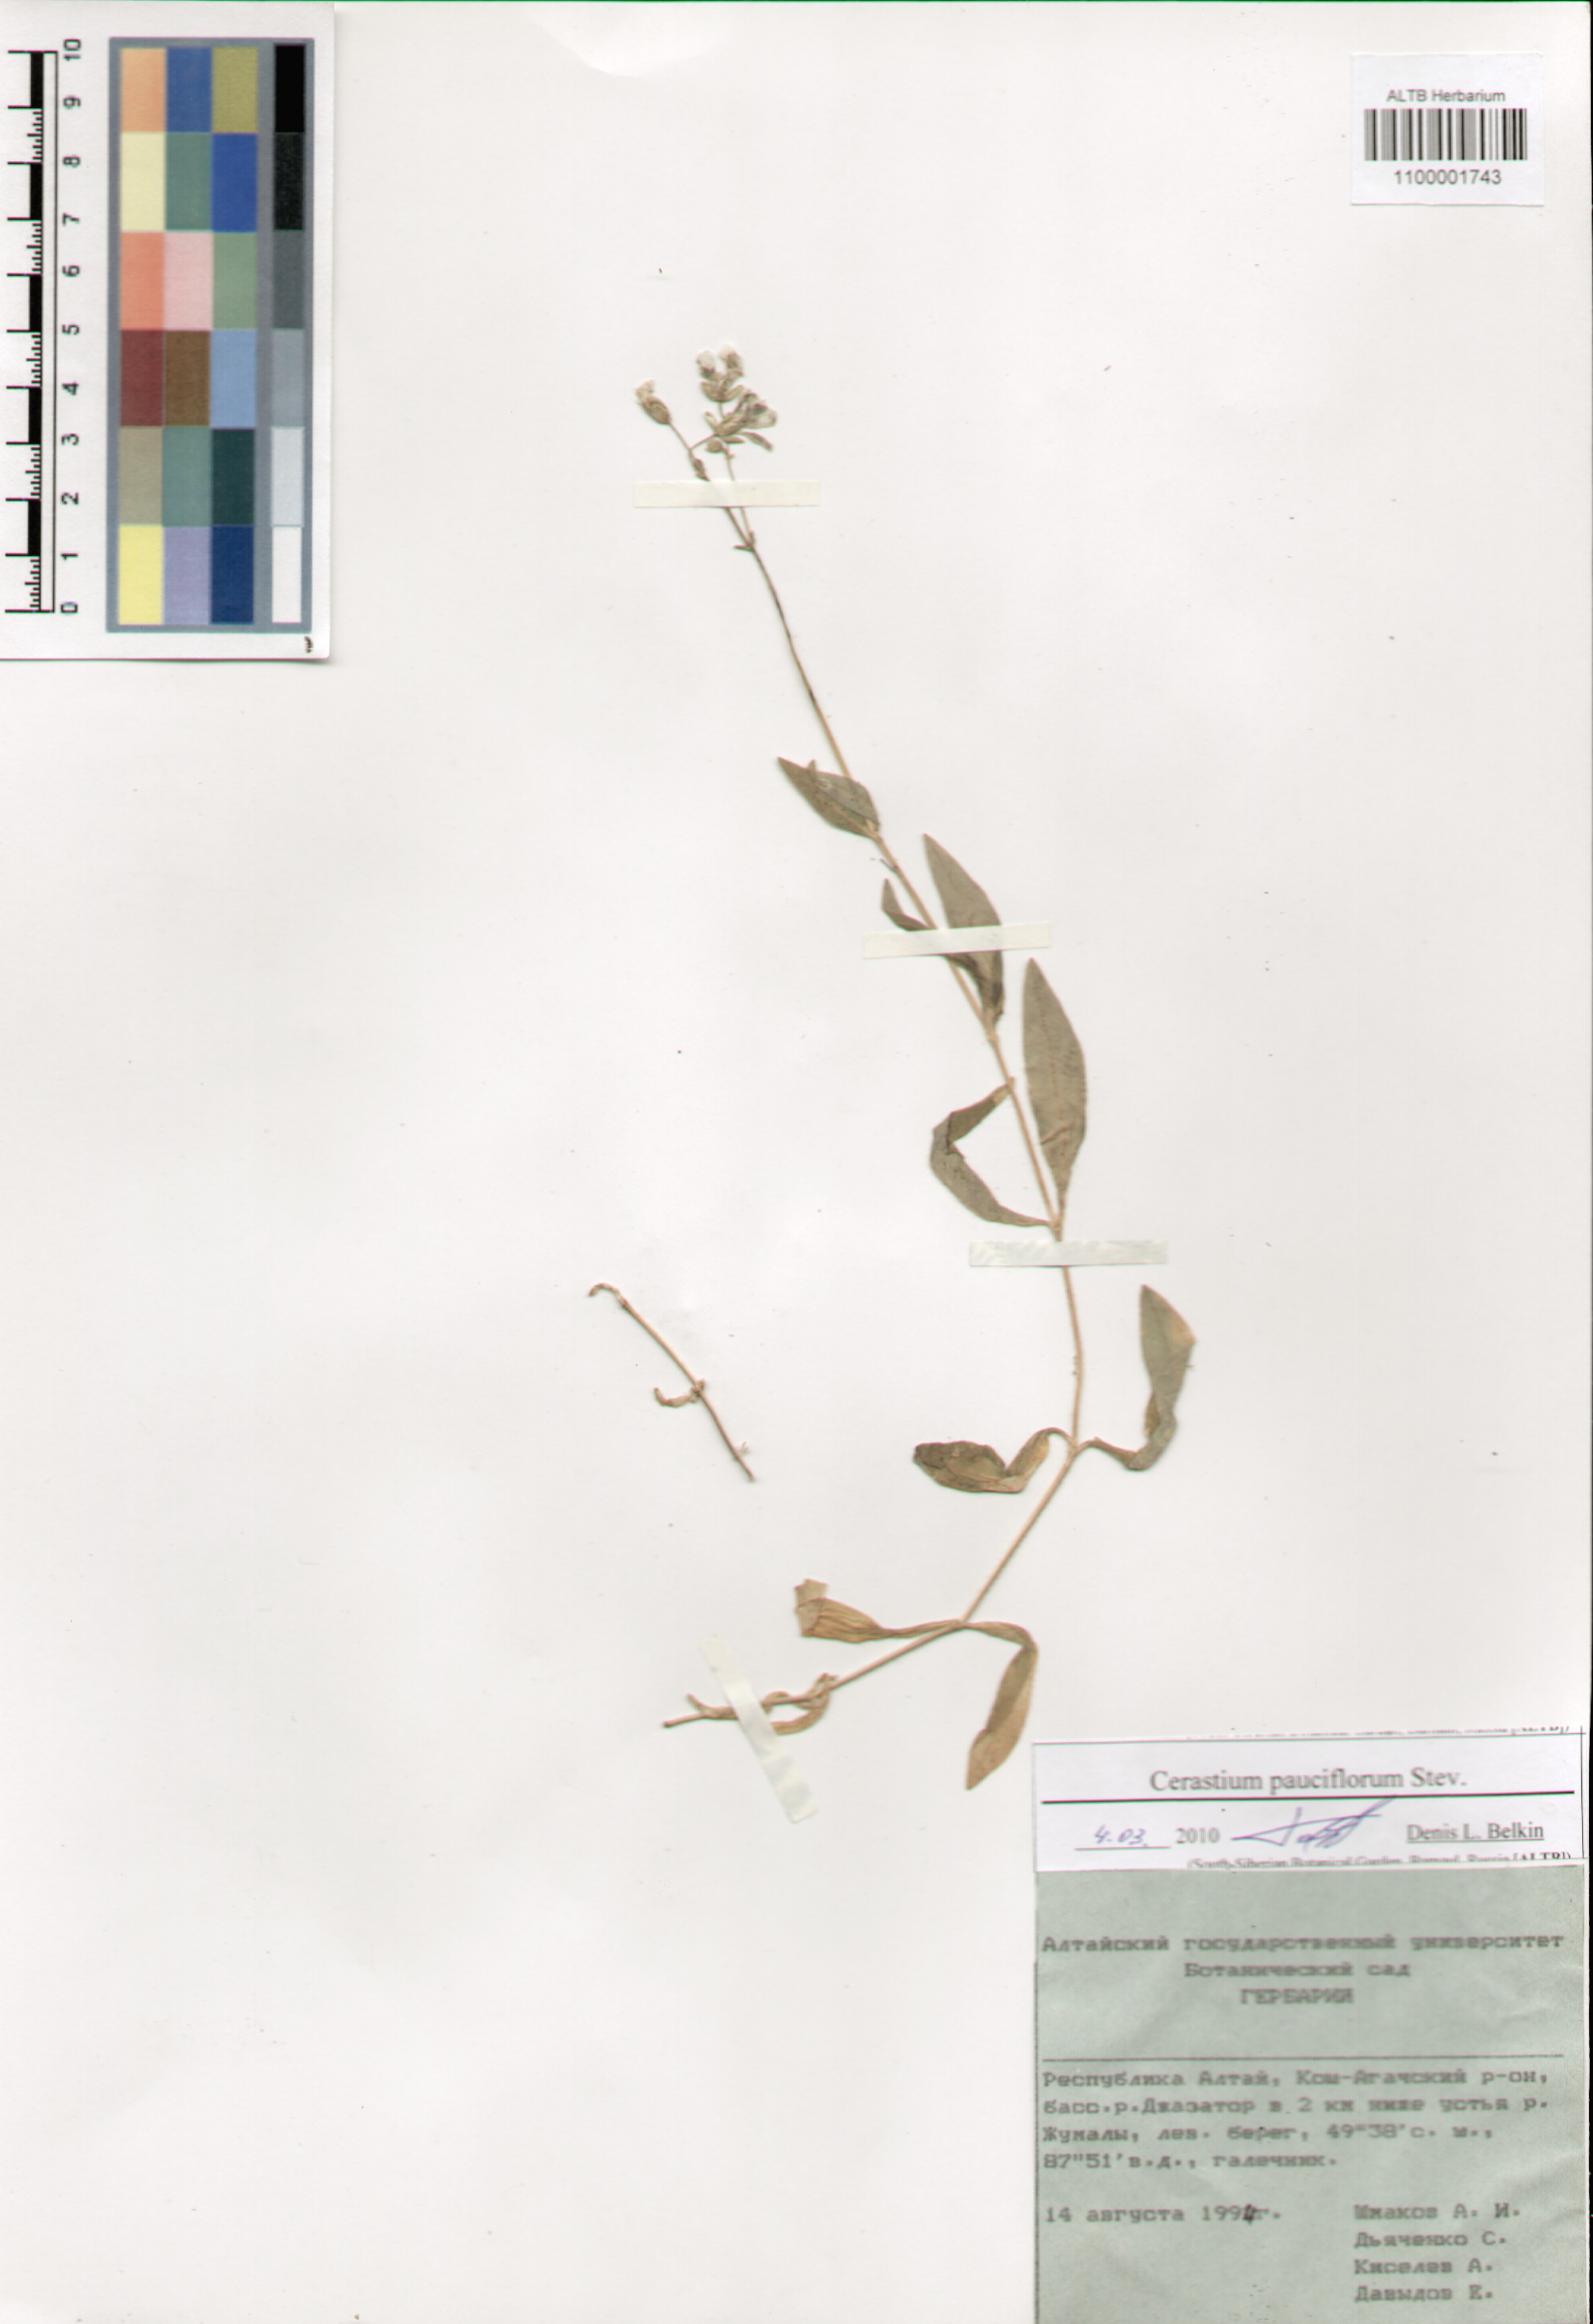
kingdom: Plantae
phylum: Tracheophyta
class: Magnoliopsida
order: Caryophyllales
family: Caryophyllaceae
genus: Cerastium
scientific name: Cerastium pauciflorum
